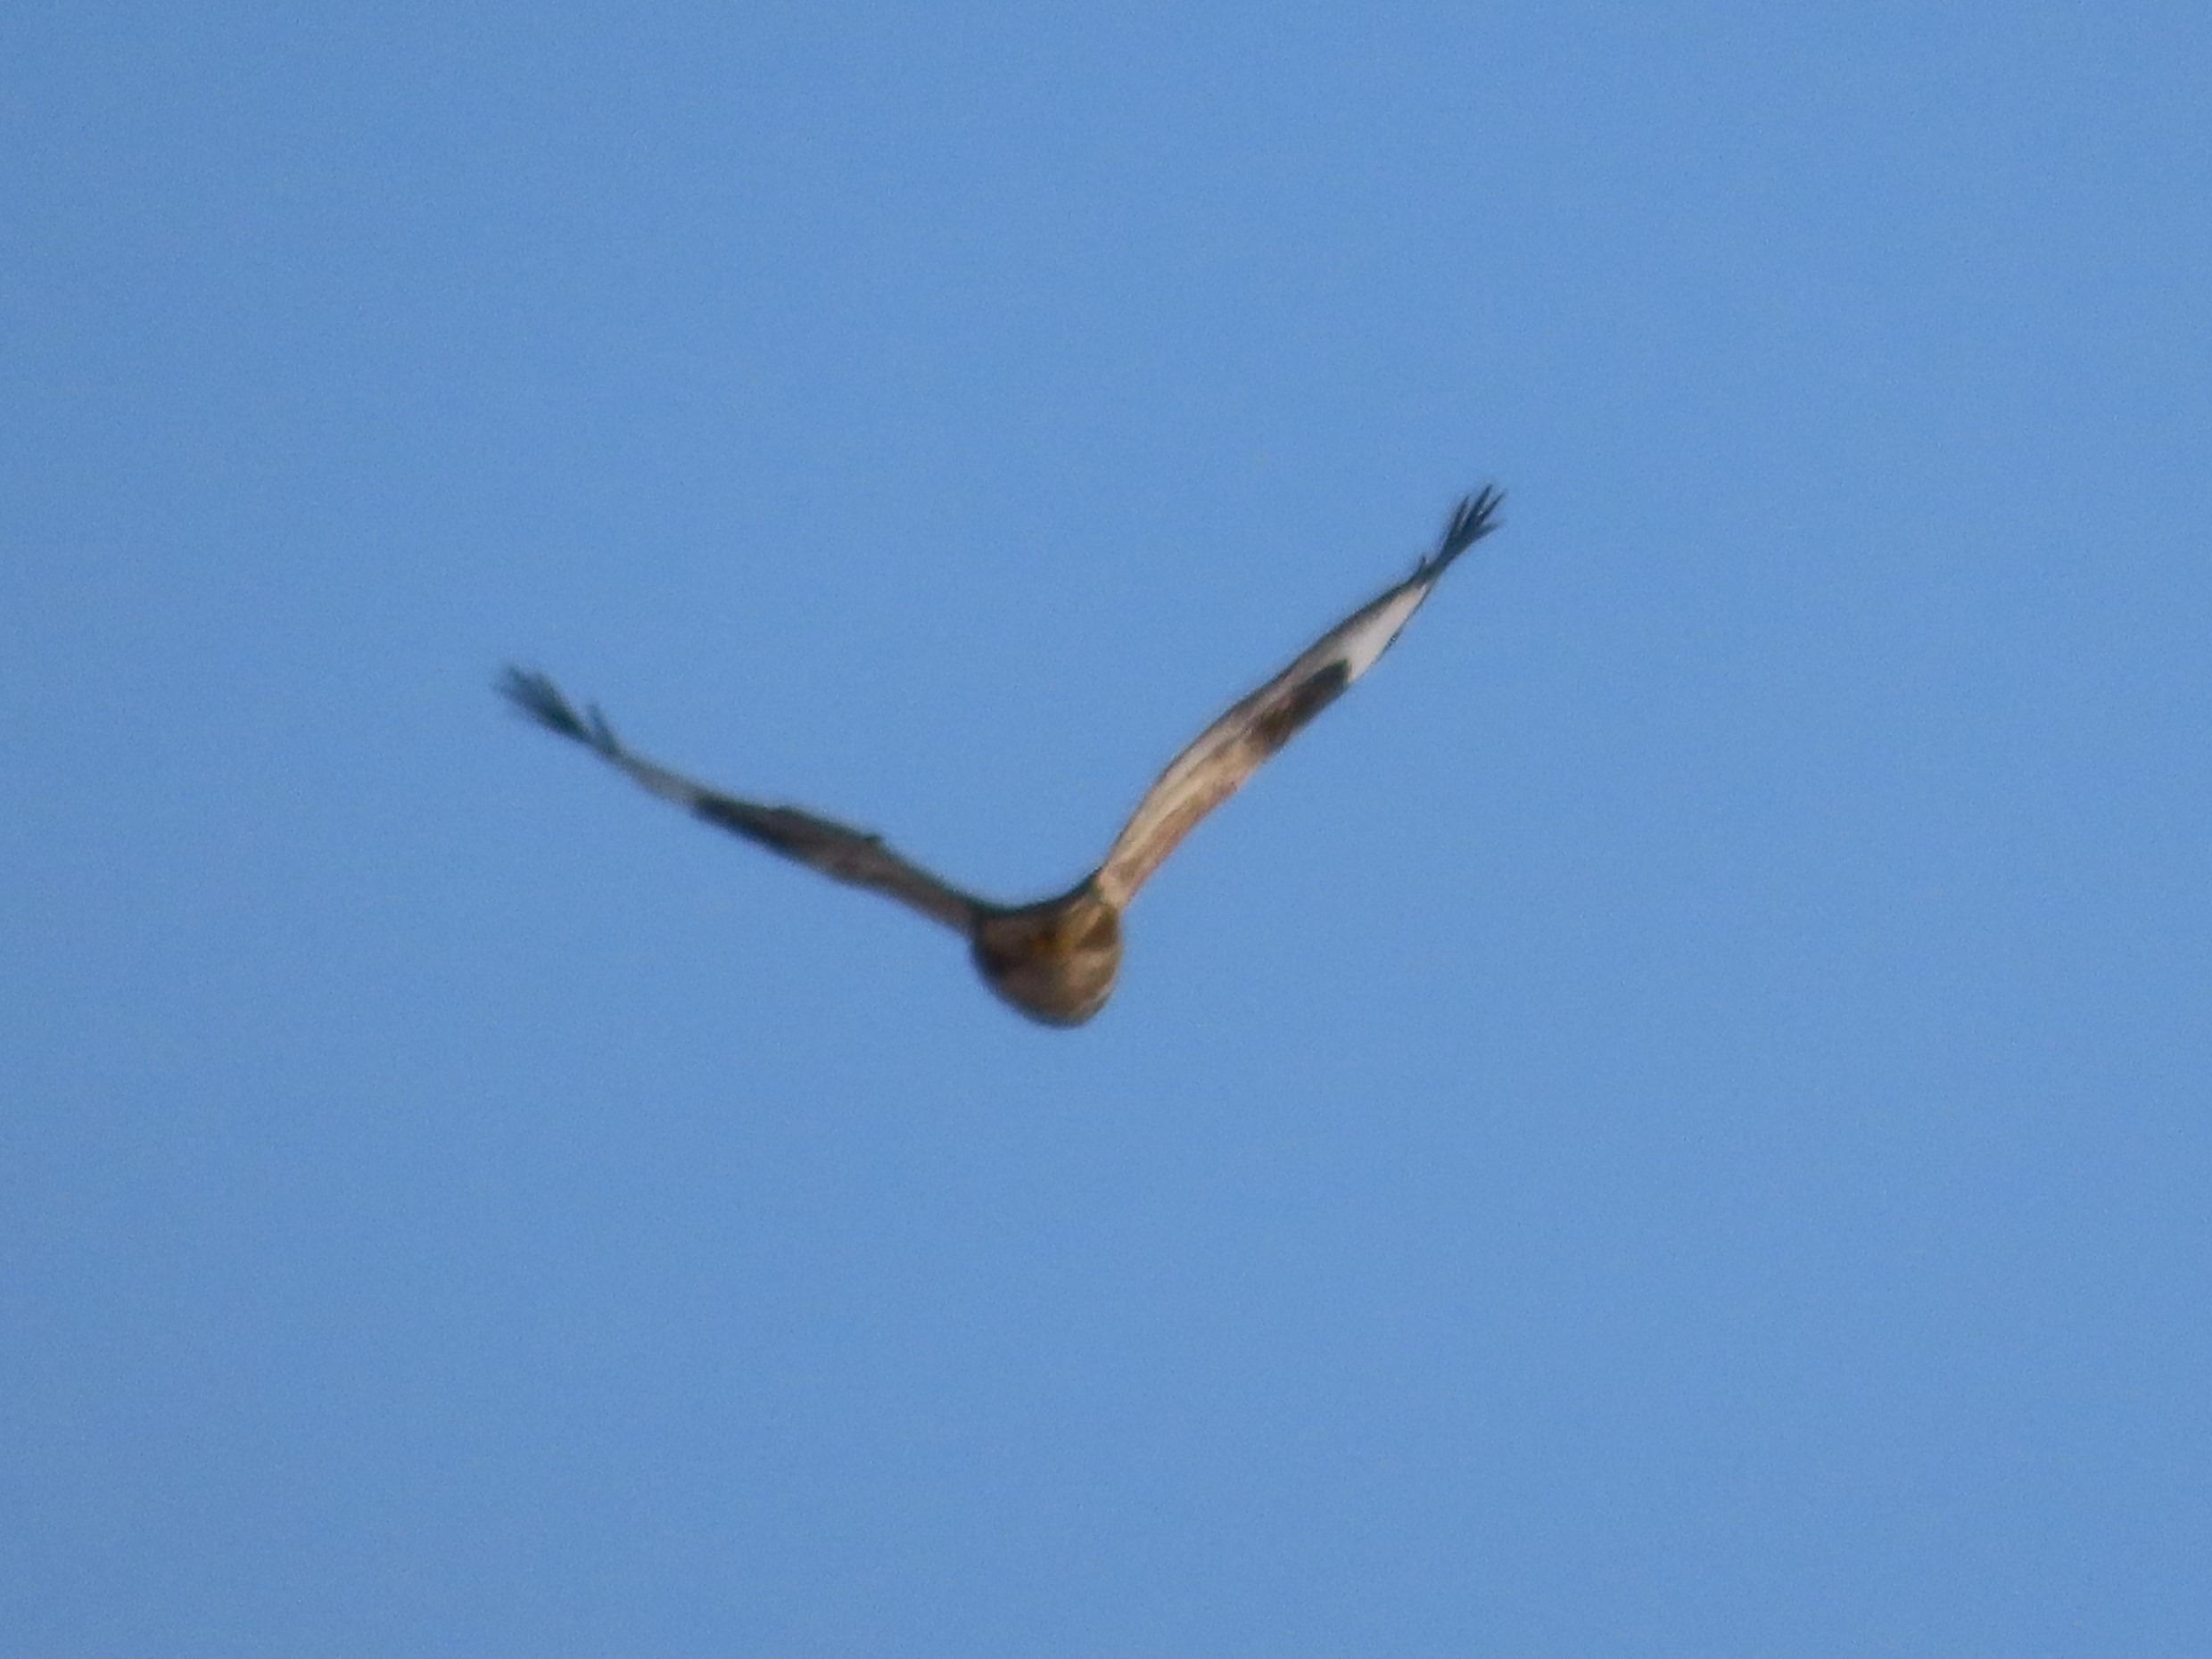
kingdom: Animalia
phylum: Chordata
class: Aves
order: Accipitriformes
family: Accipitridae
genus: Buteo
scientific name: Buteo buteo
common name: Musvåge
